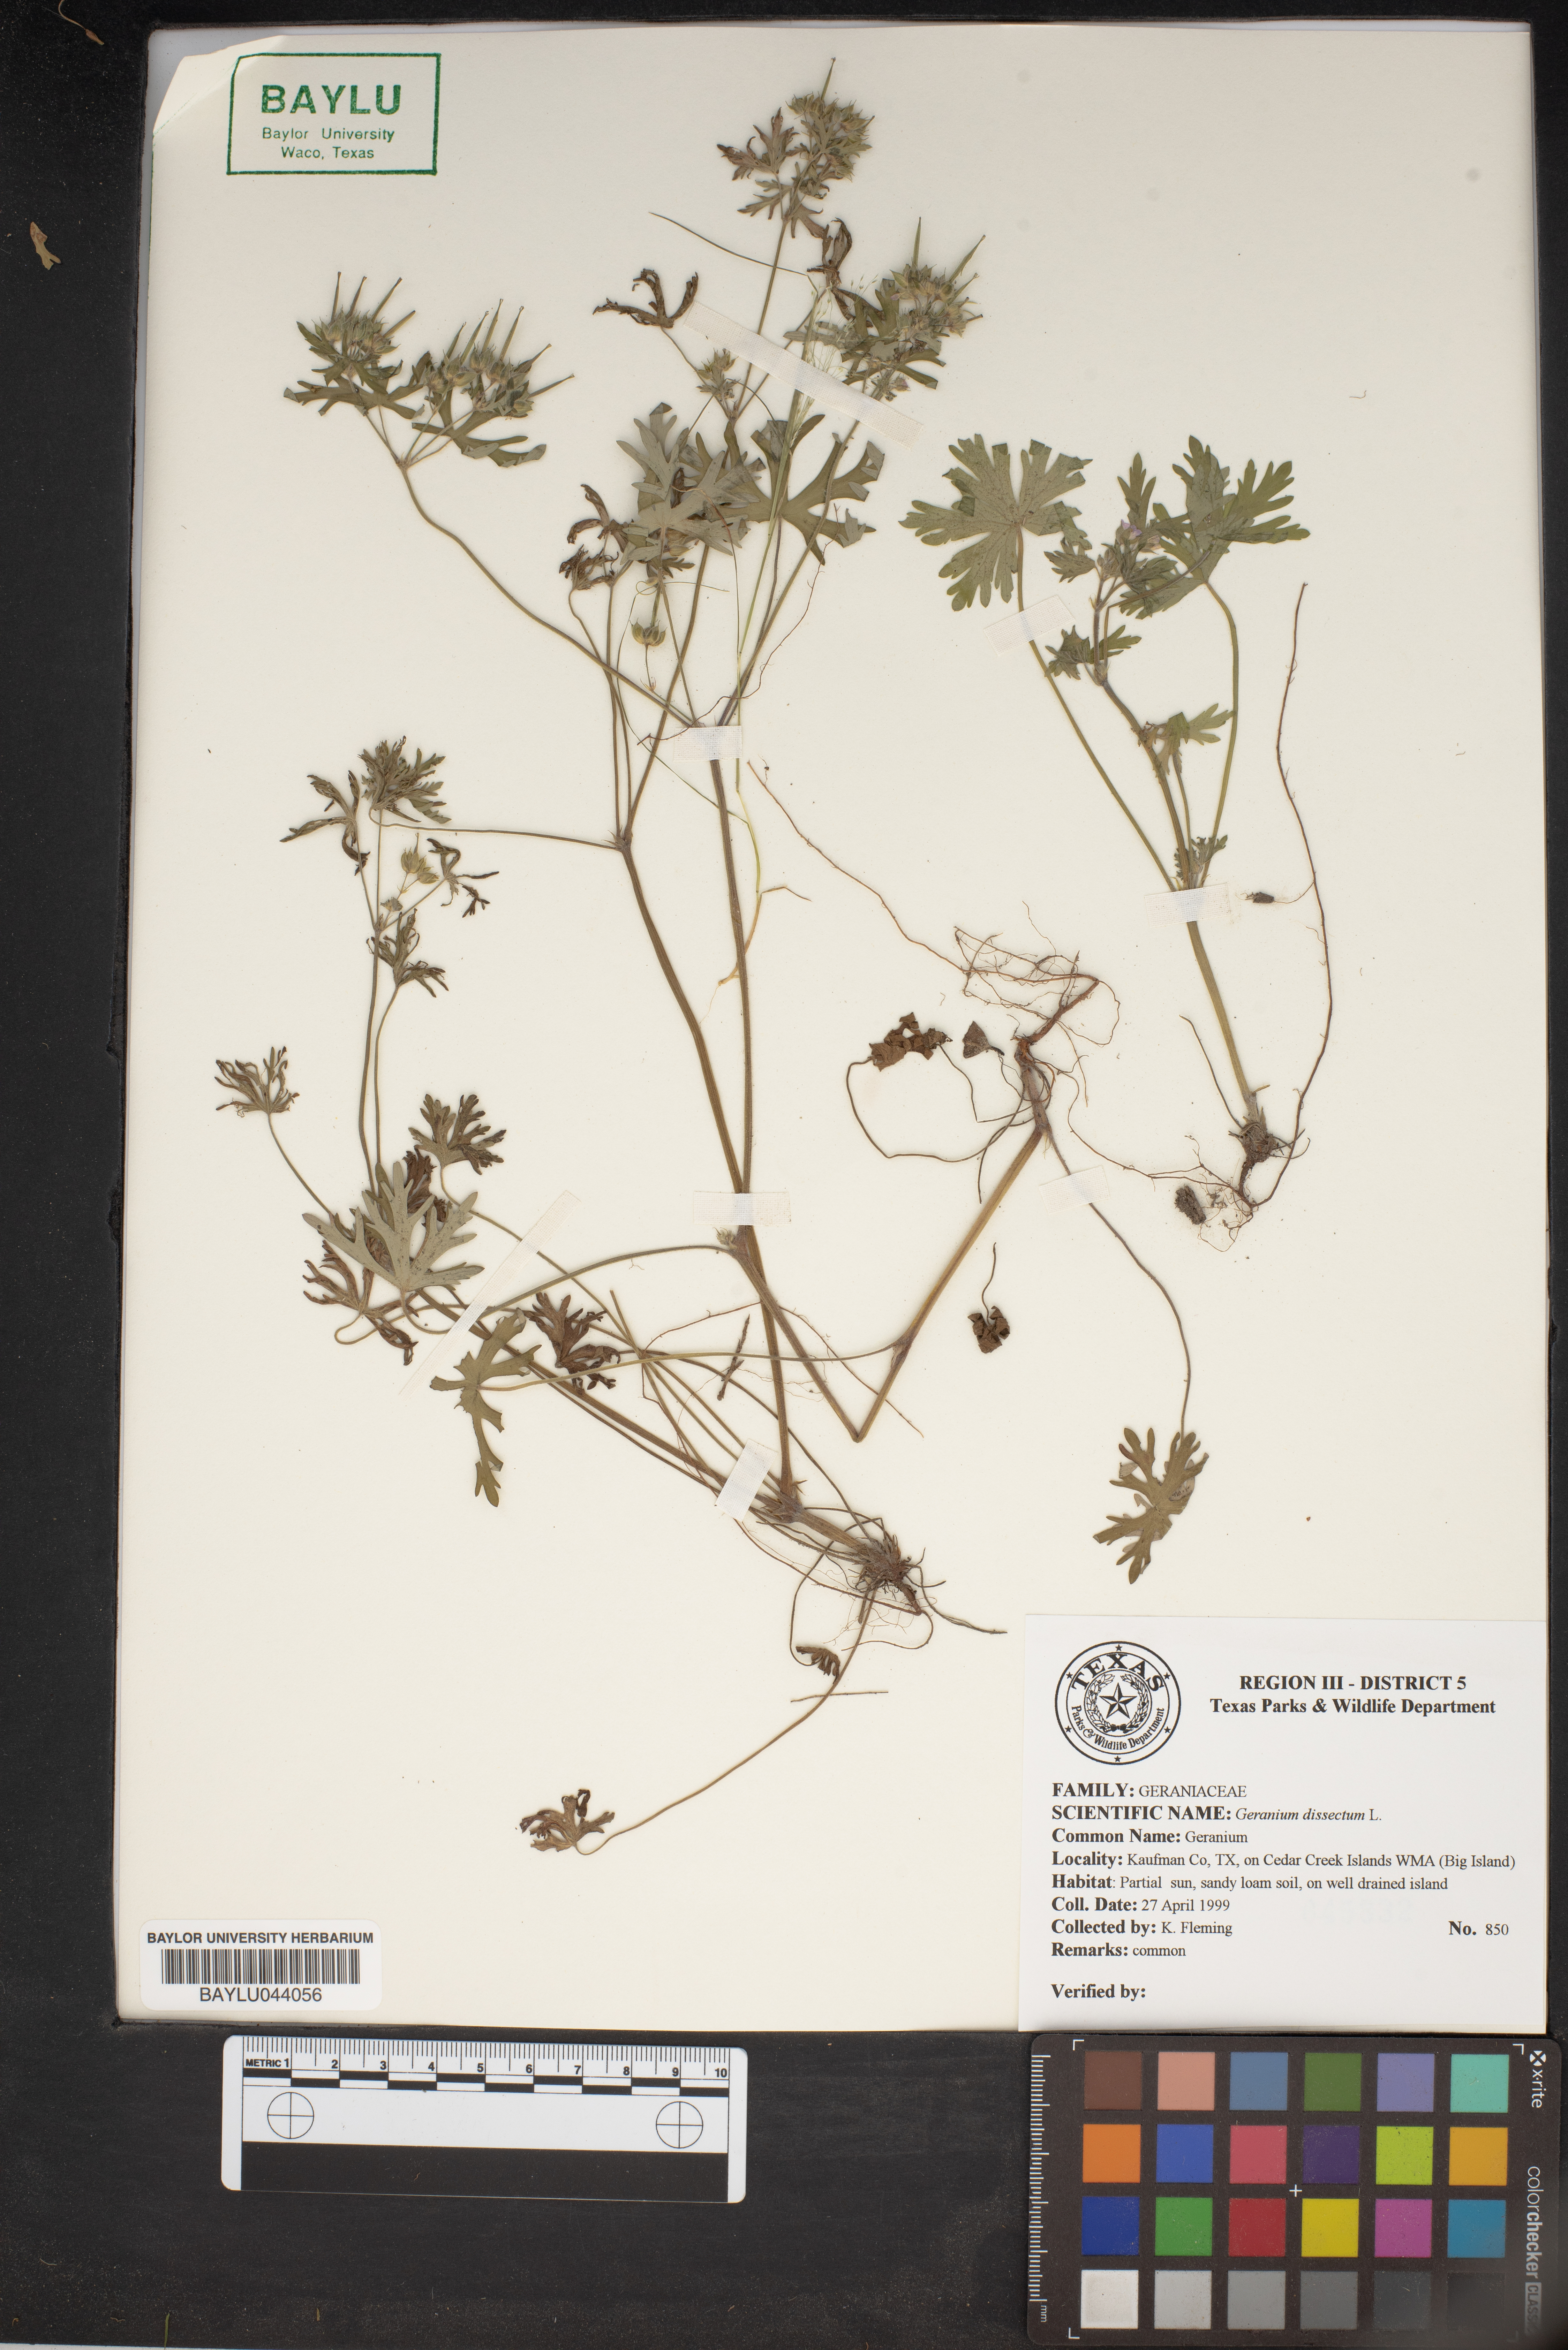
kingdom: Plantae
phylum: Tracheophyta
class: Magnoliopsida
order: Geraniales
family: Geraniaceae
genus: Geranium
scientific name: Geranium dissectum
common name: Cut-leaved crane's-bill
